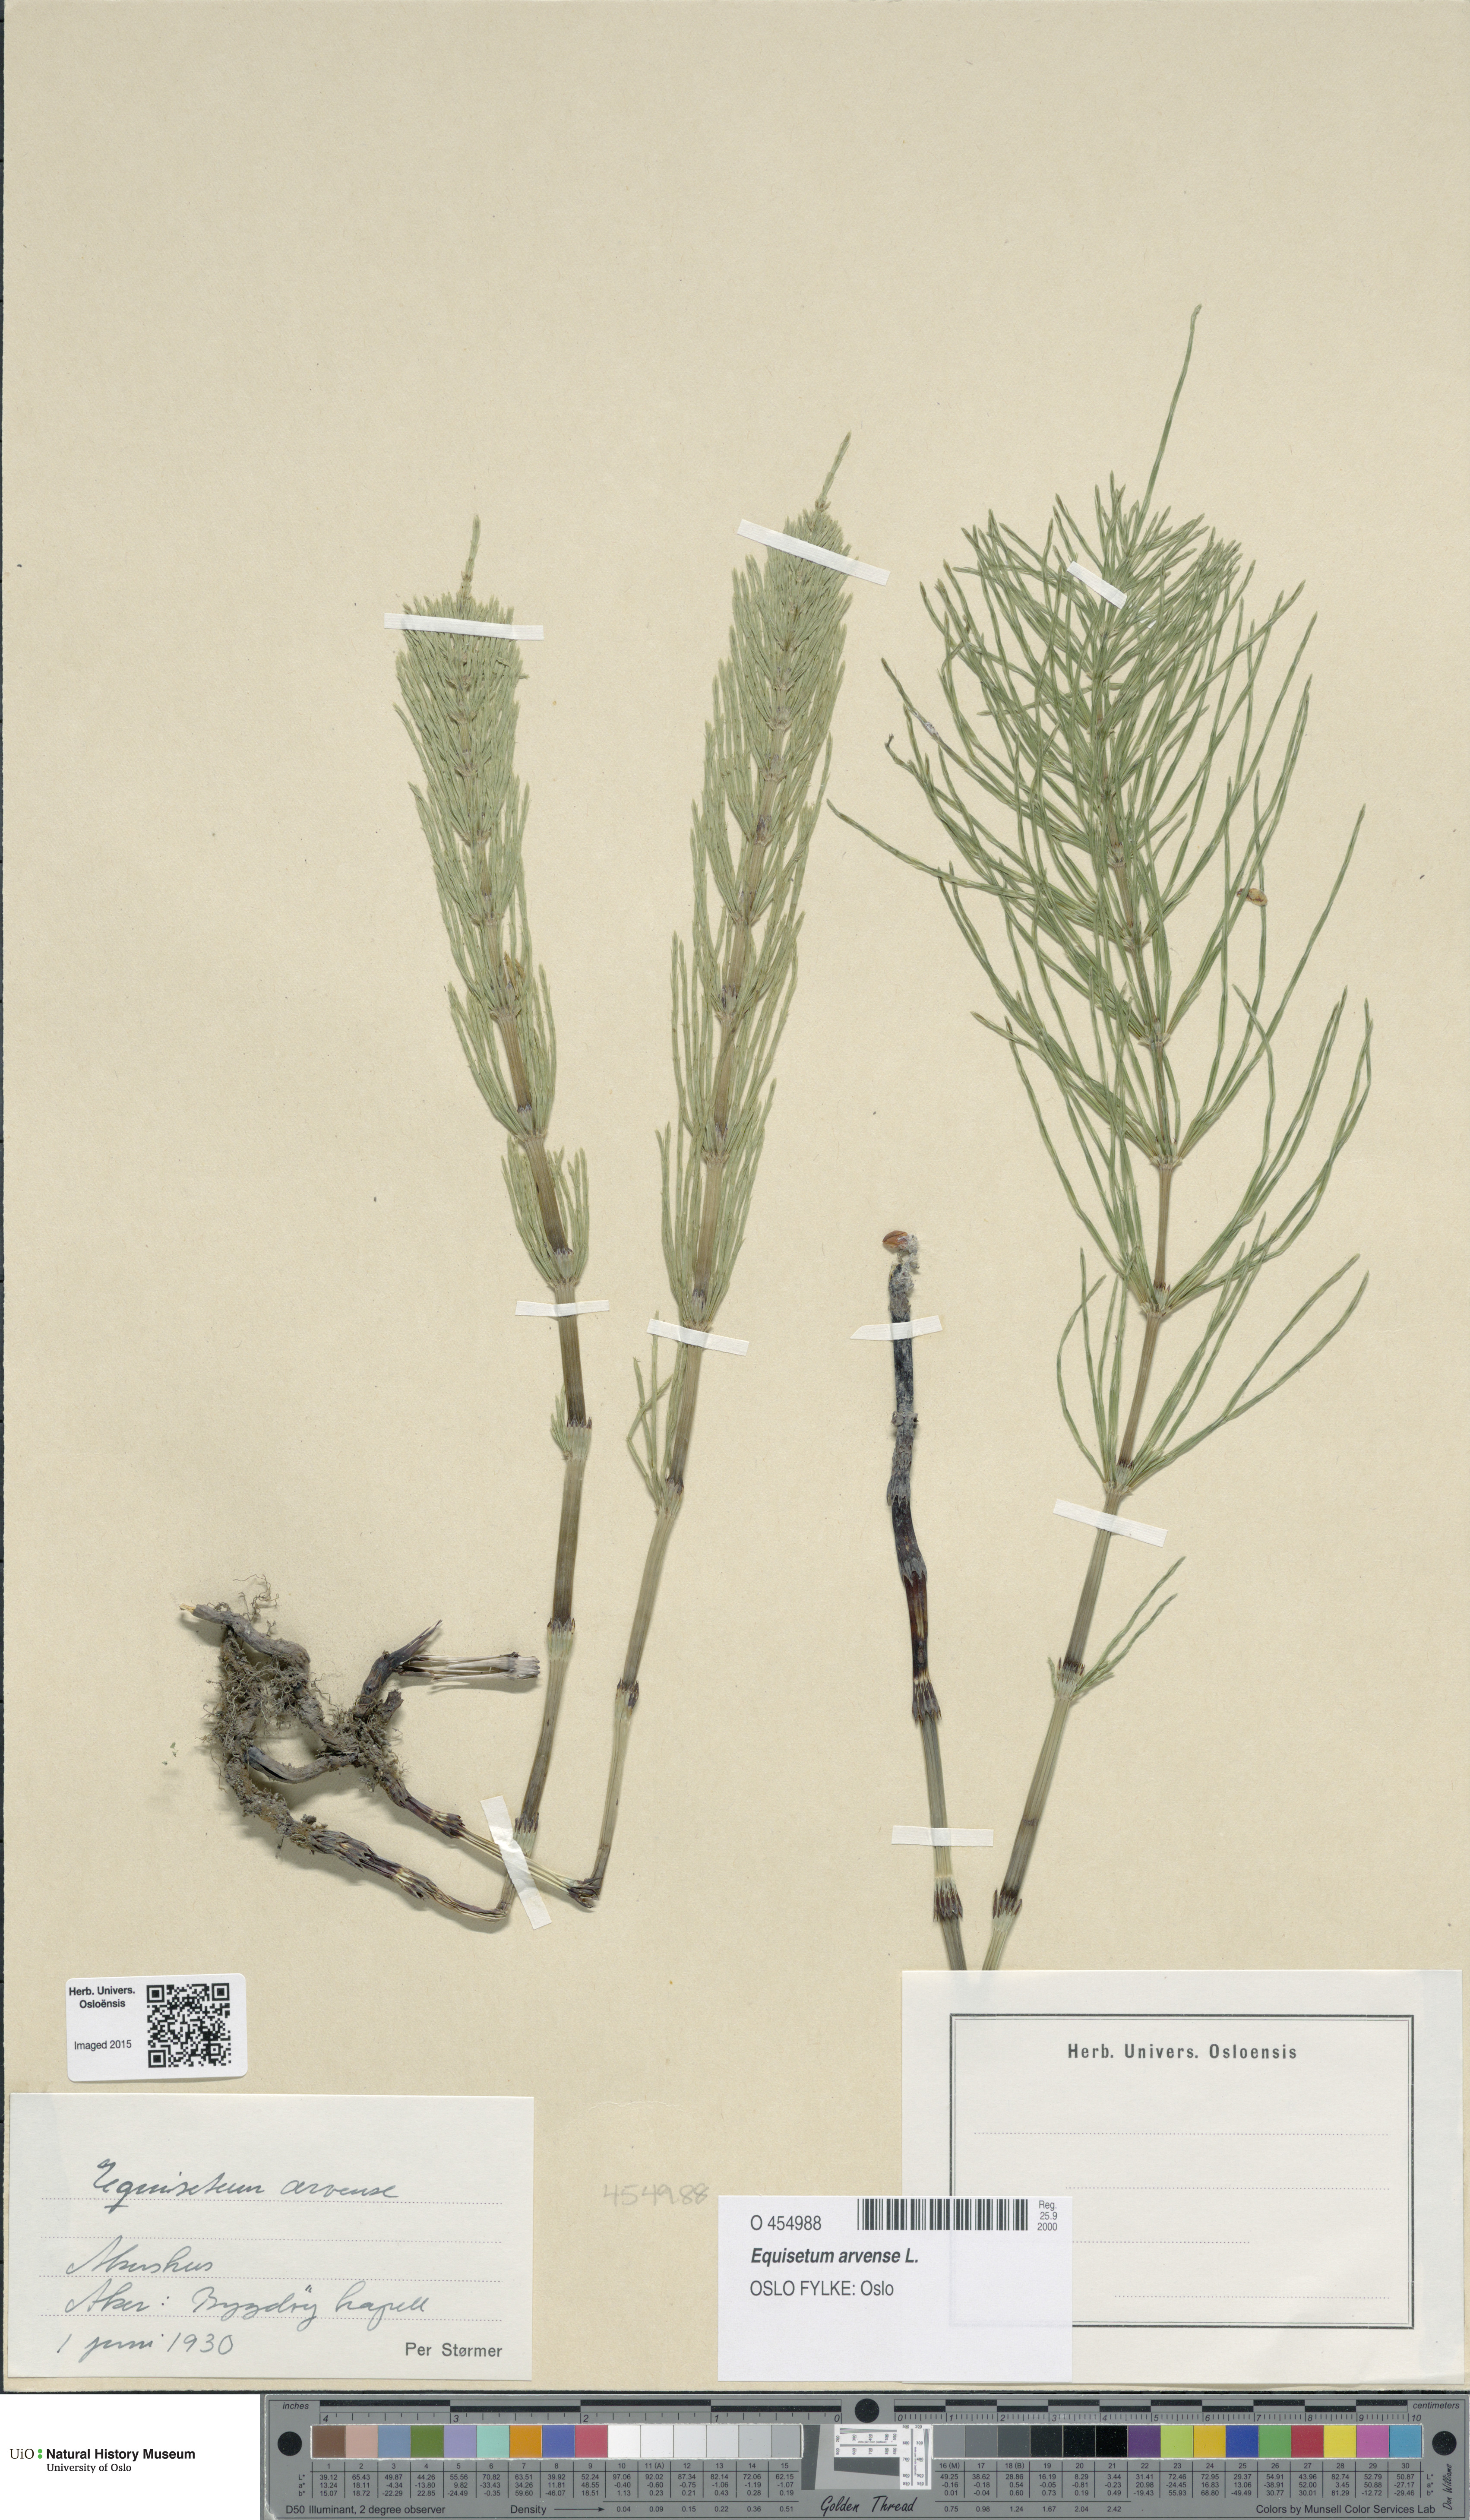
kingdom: Plantae
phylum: Tracheophyta
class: Polypodiopsida
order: Equisetales
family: Equisetaceae
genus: Equisetum
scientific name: Equisetum arvense
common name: Field horsetail
